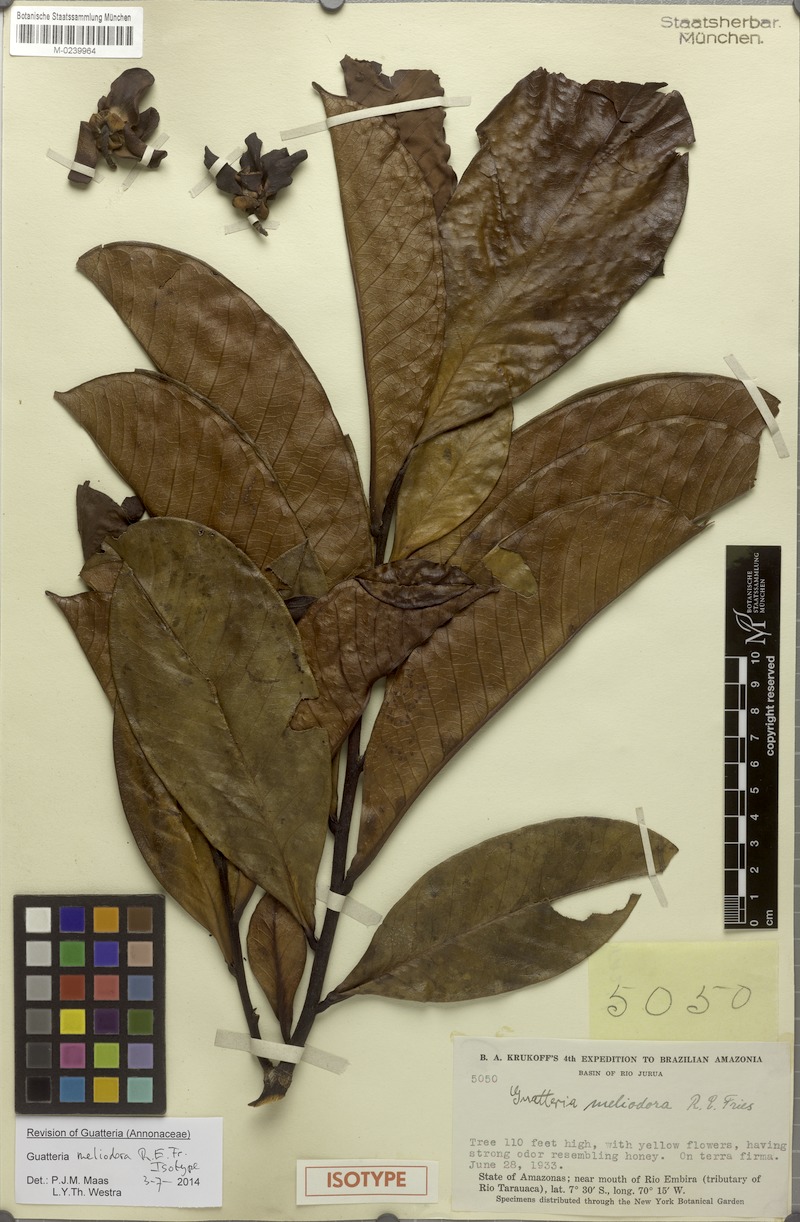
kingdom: Plantae
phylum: Tracheophyta
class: Magnoliopsida
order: Magnoliales
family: Annonaceae
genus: Guatteria
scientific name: Guatteria meliodora
